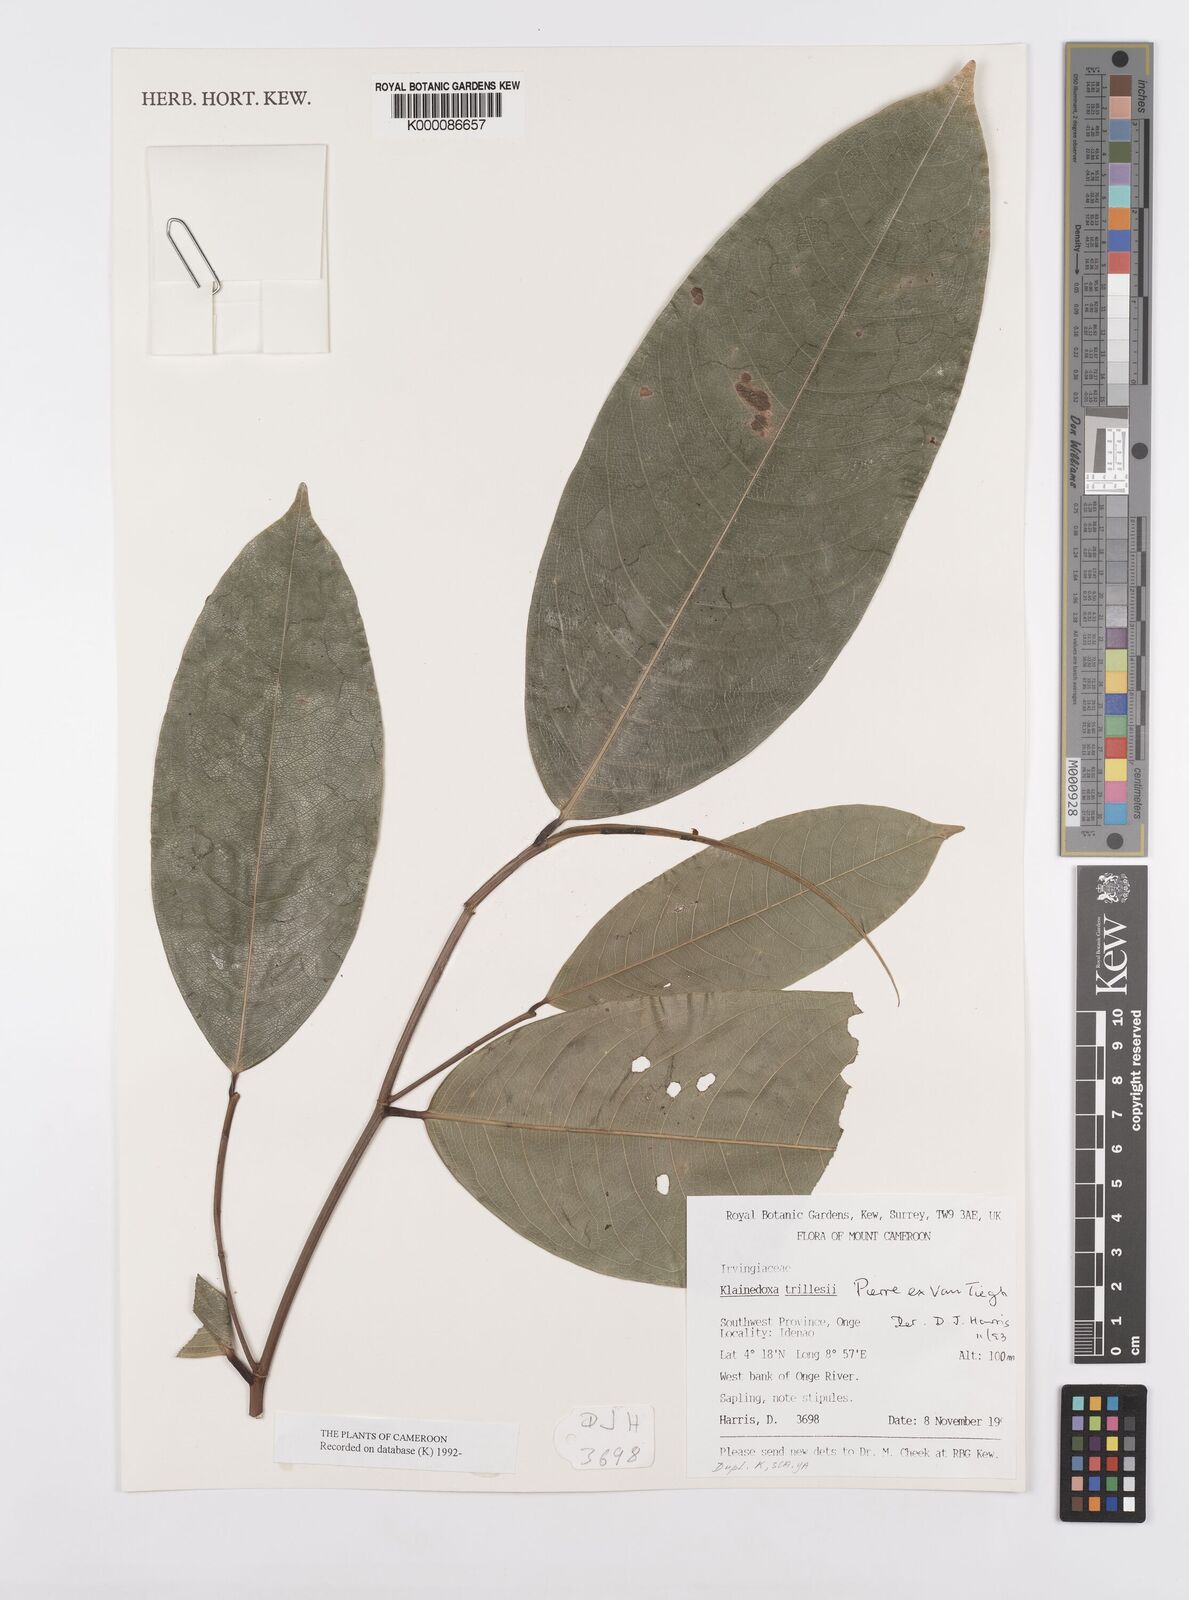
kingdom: Plantae
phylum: Tracheophyta
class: Magnoliopsida
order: Malpighiales
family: Irvingiaceae
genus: Klainedoxa
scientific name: Klainedoxa trillesii
